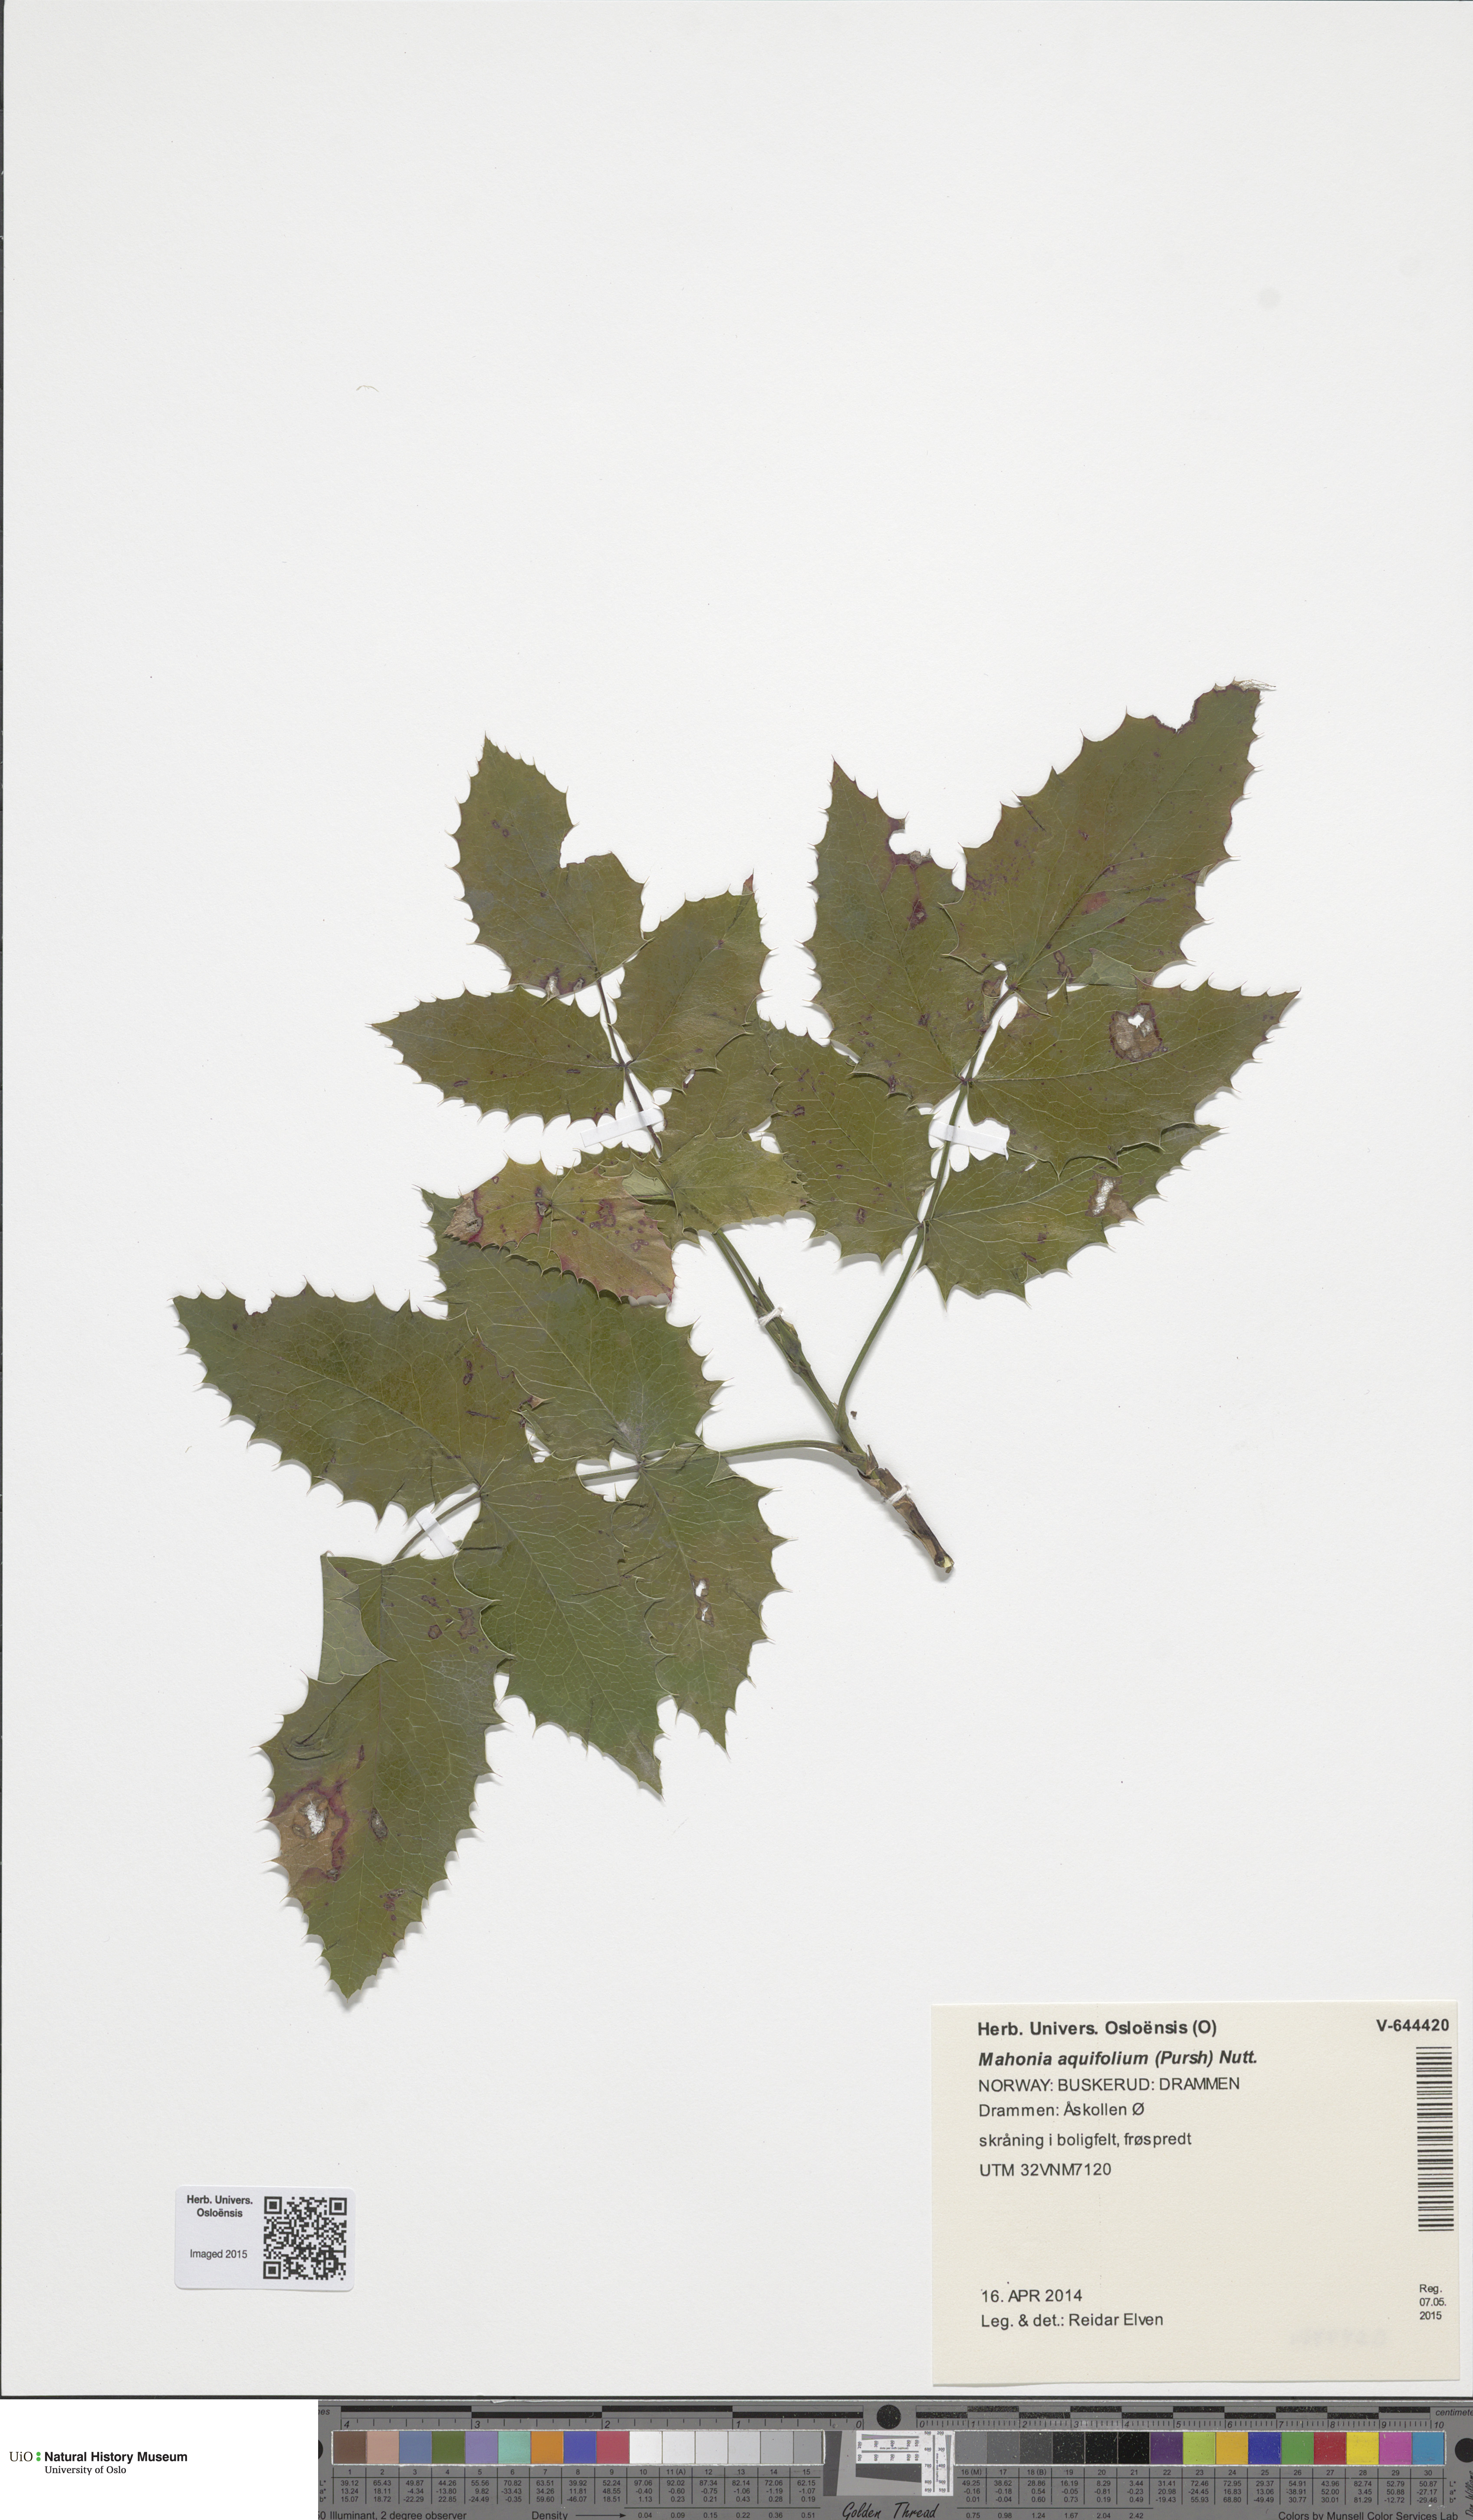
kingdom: Plantae
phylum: Tracheophyta
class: Magnoliopsida
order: Ranunculales
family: Berberidaceae
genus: Mahonia
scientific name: Mahonia aquifolium
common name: Oregon-grape
